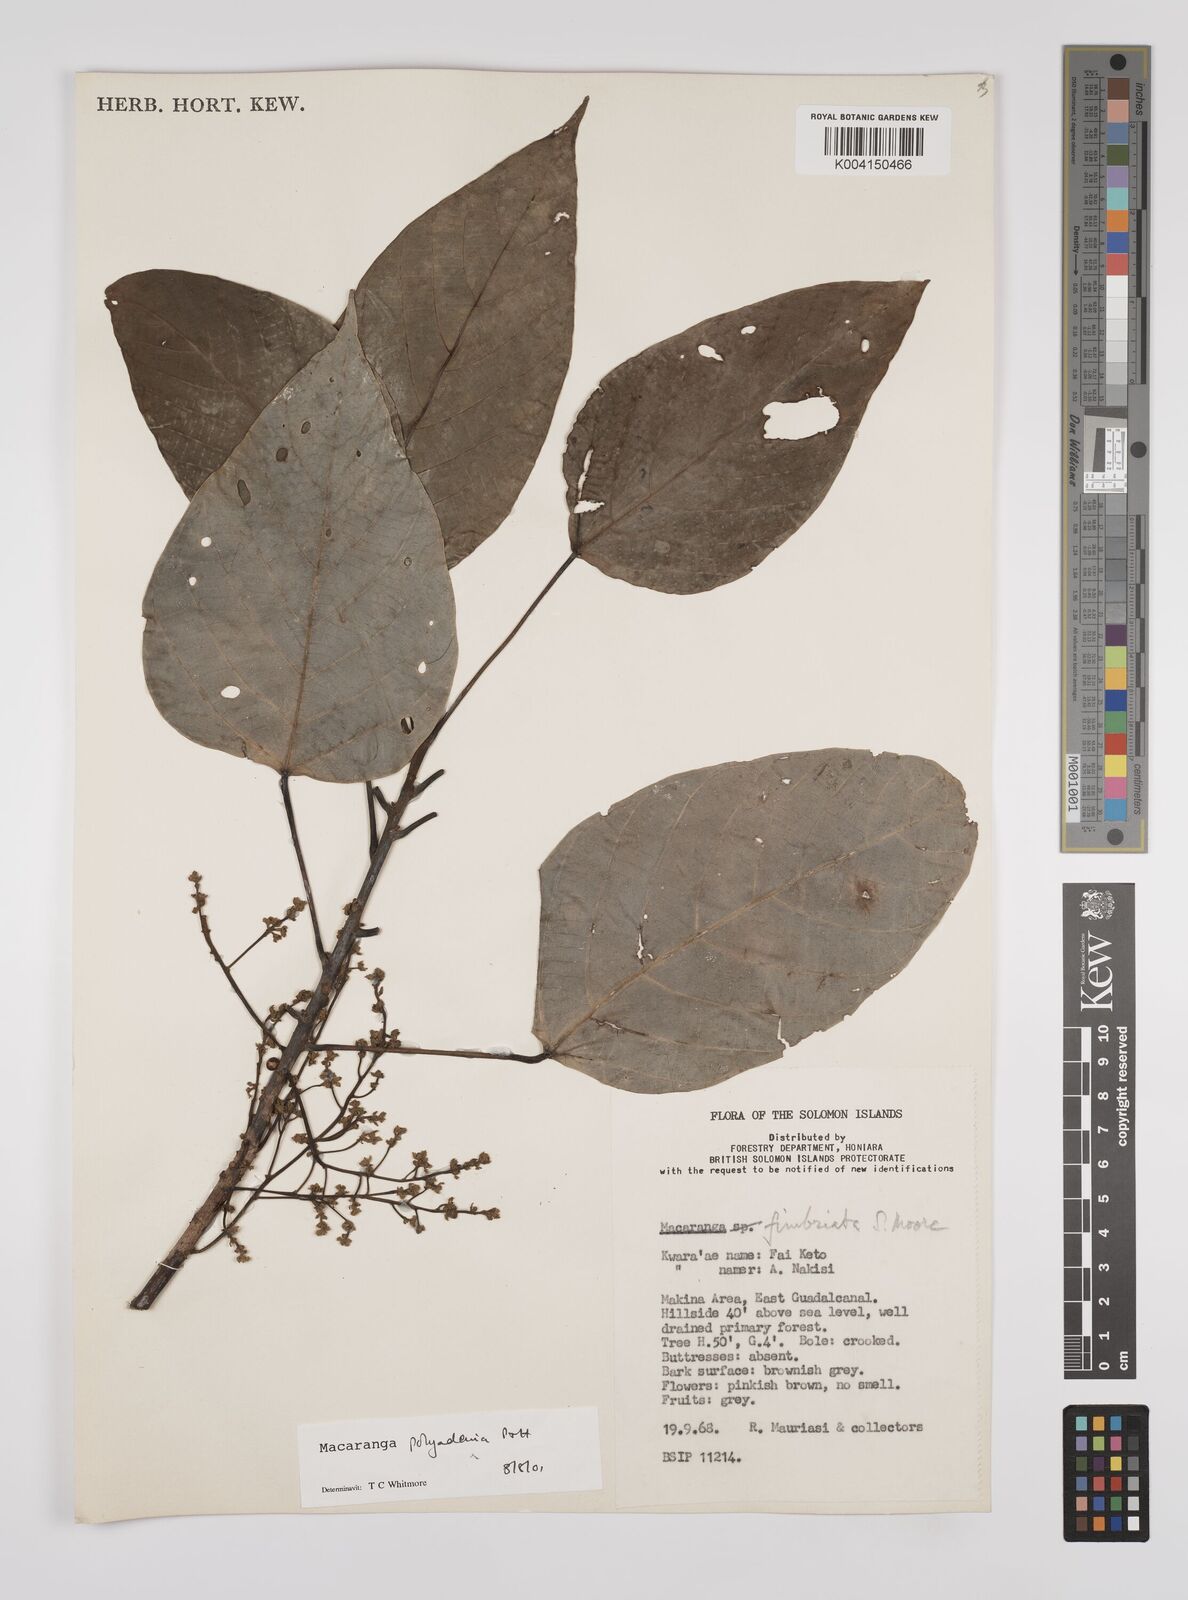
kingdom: Plantae
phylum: Tracheophyta
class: Magnoliopsida
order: Malpighiales
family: Euphorbiaceae
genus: Macaranga
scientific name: Macaranga polyadenia
